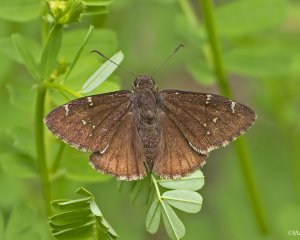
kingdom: Animalia
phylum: Arthropoda
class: Insecta
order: Lepidoptera
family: Hesperiidae
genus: Autochton
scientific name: Autochton
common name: Northern Cloudywing
